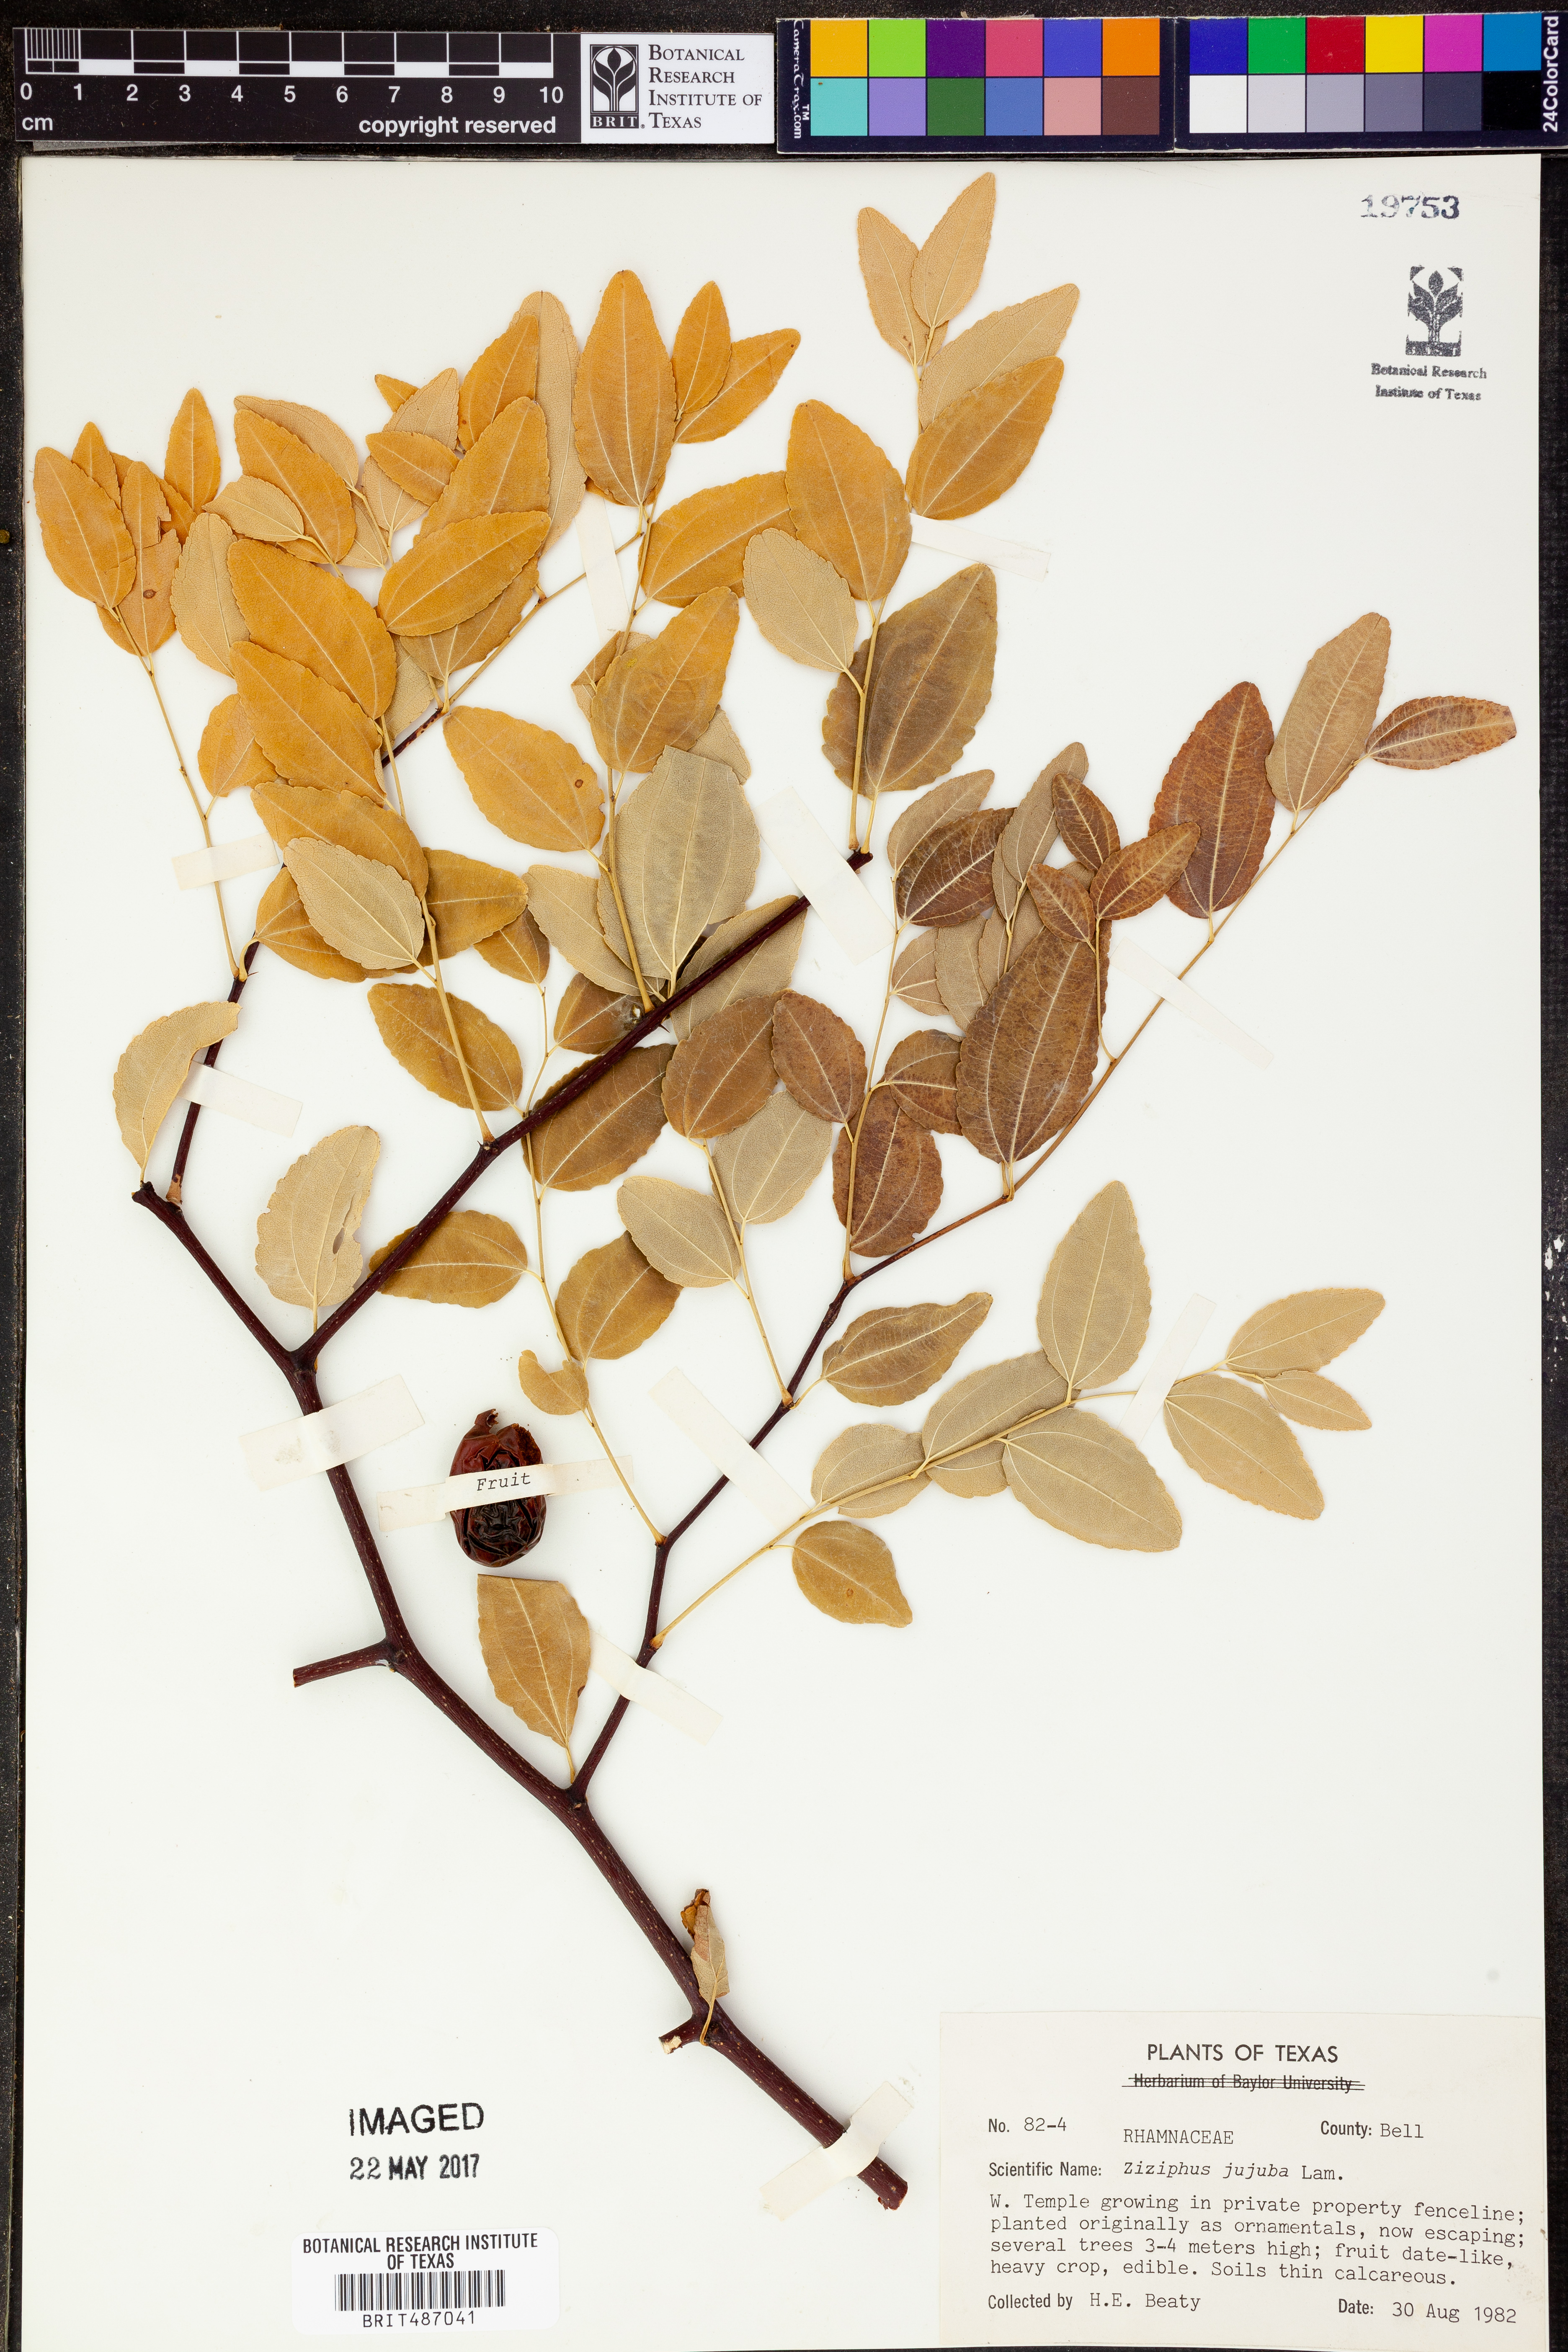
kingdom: Plantae
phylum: Tracheophyta
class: Magnoliopsida
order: Rosales
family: Rhamnaceae
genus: Ziziphus
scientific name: Ziziphus jujuba
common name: Jujube red date
